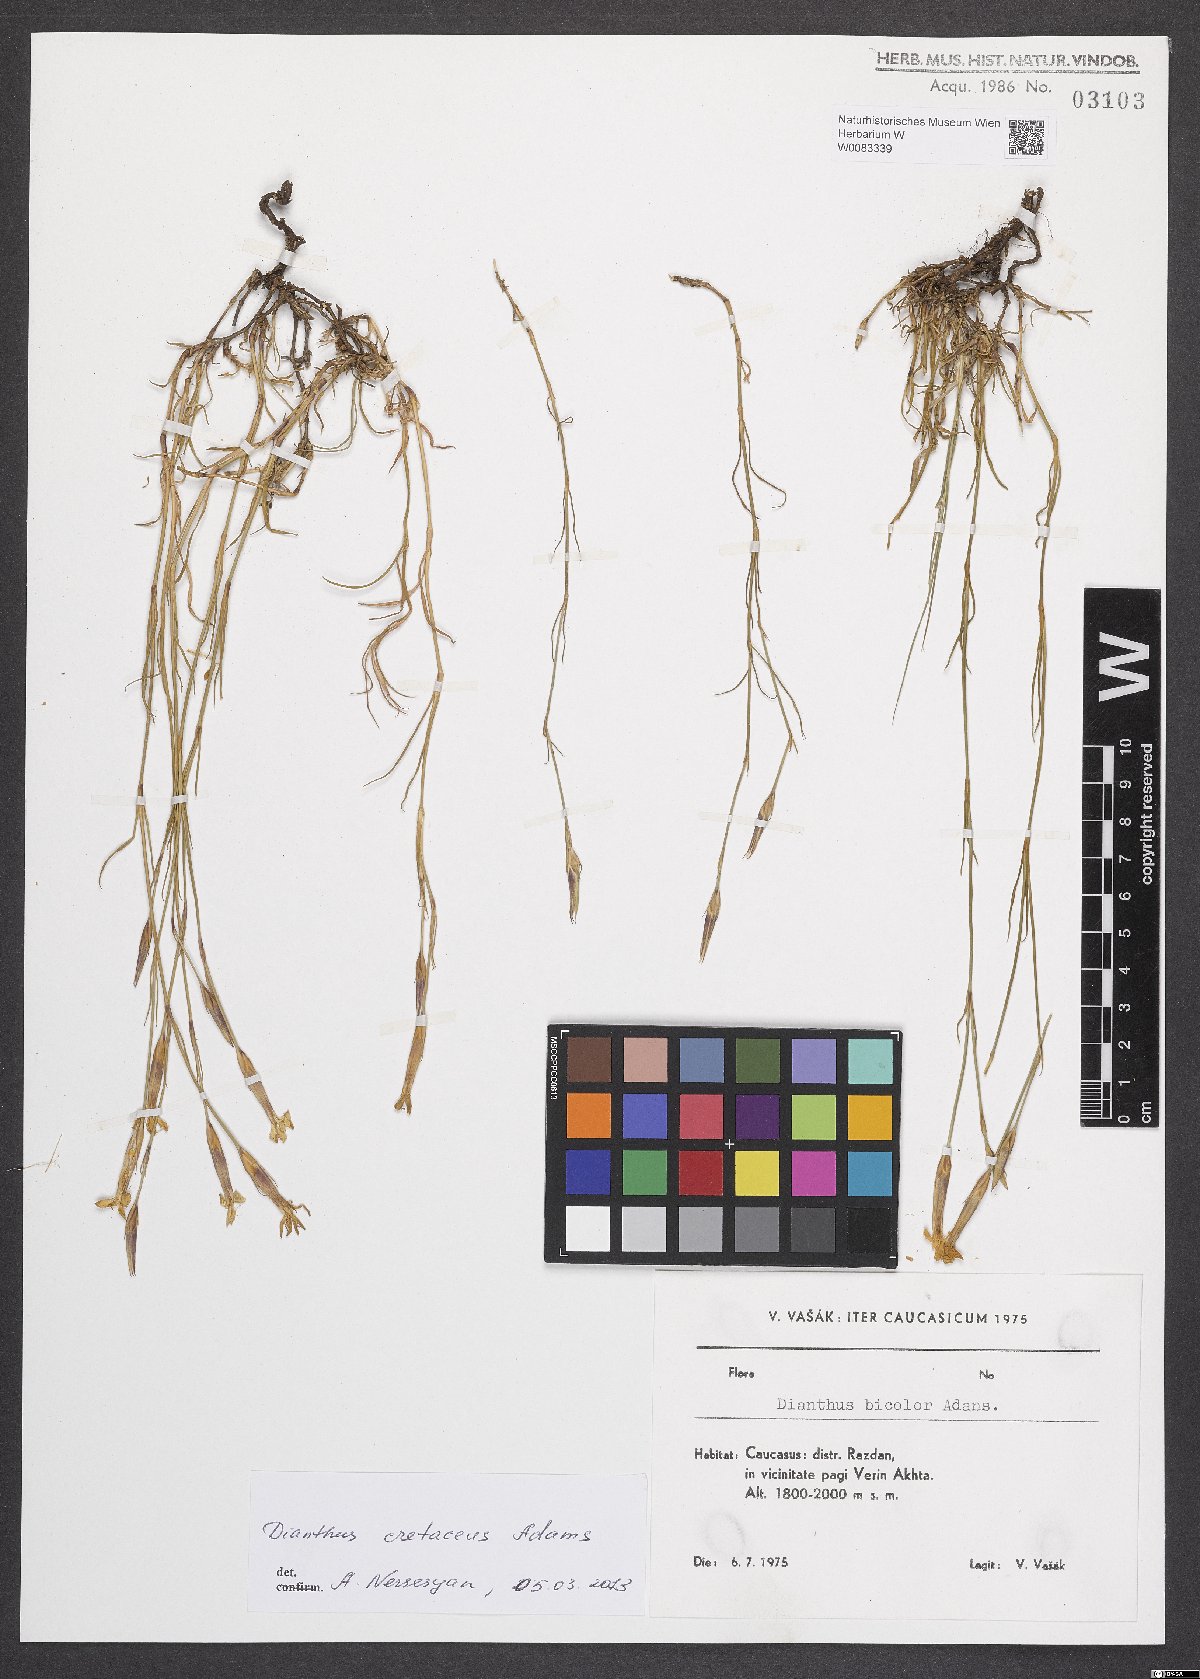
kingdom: Plantae
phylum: Tracheophyta
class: Magnoliopsida
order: Caryophyllales
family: Caryophyllaceae
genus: Dianthus
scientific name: Dianthus cretaceus
